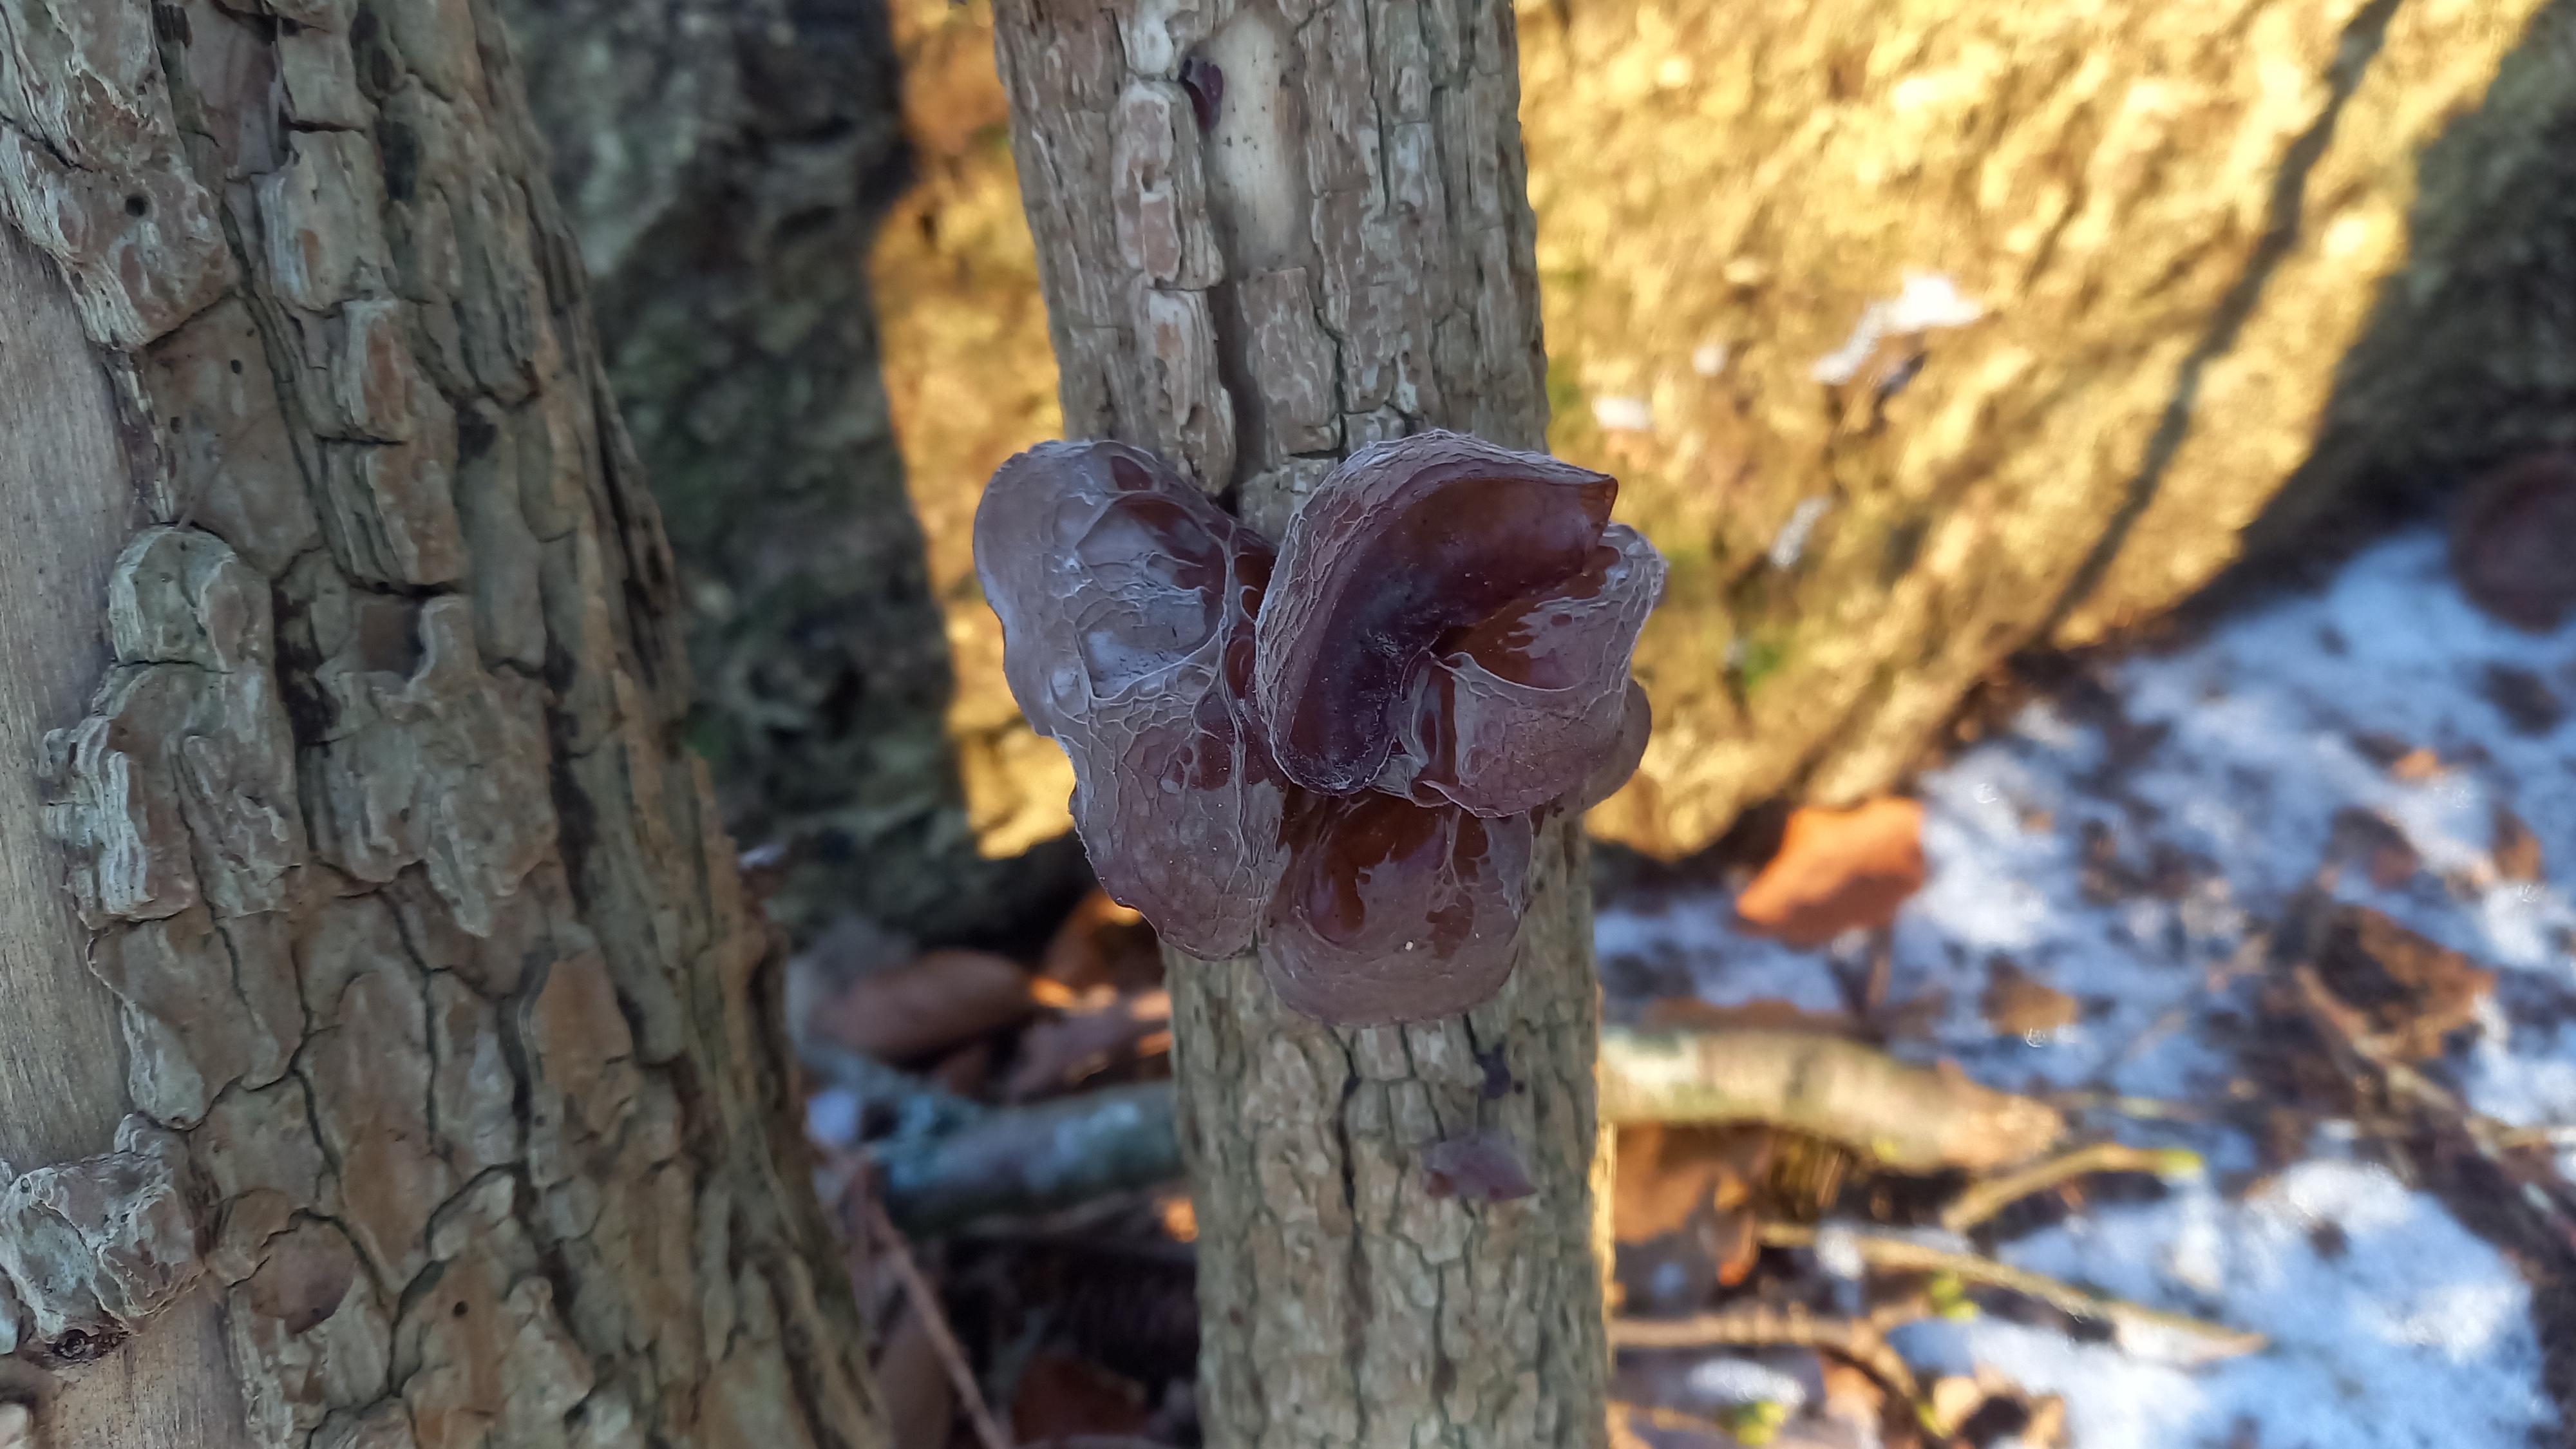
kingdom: Fungi
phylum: Basidiomycota
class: Agaricomycetes
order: Auriculariales
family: Auriculariaceae
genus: Auricularia
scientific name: Auricularia auricula-judae
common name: almindelig judasøre
